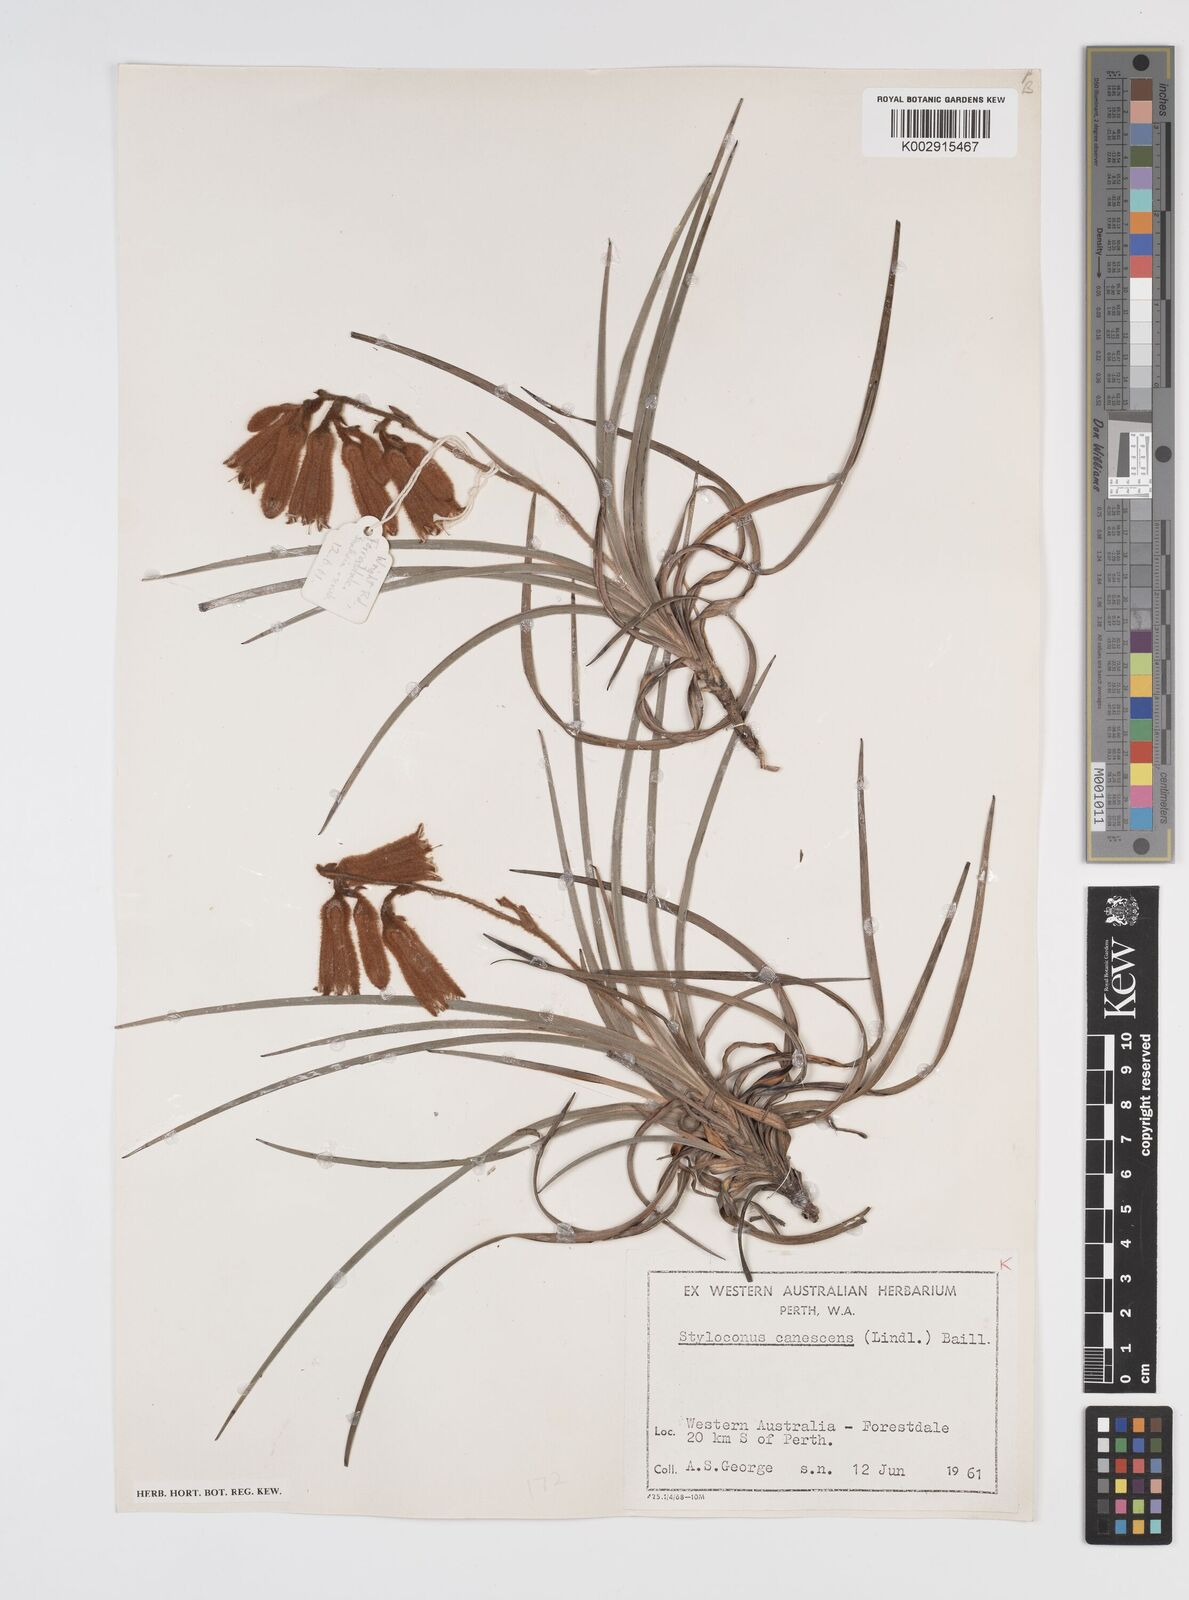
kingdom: Plantae
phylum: Tracheophyta
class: Liliopsida
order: Commelinales
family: Haemodoraceae
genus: Blancoa
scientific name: Blancoa canescens
